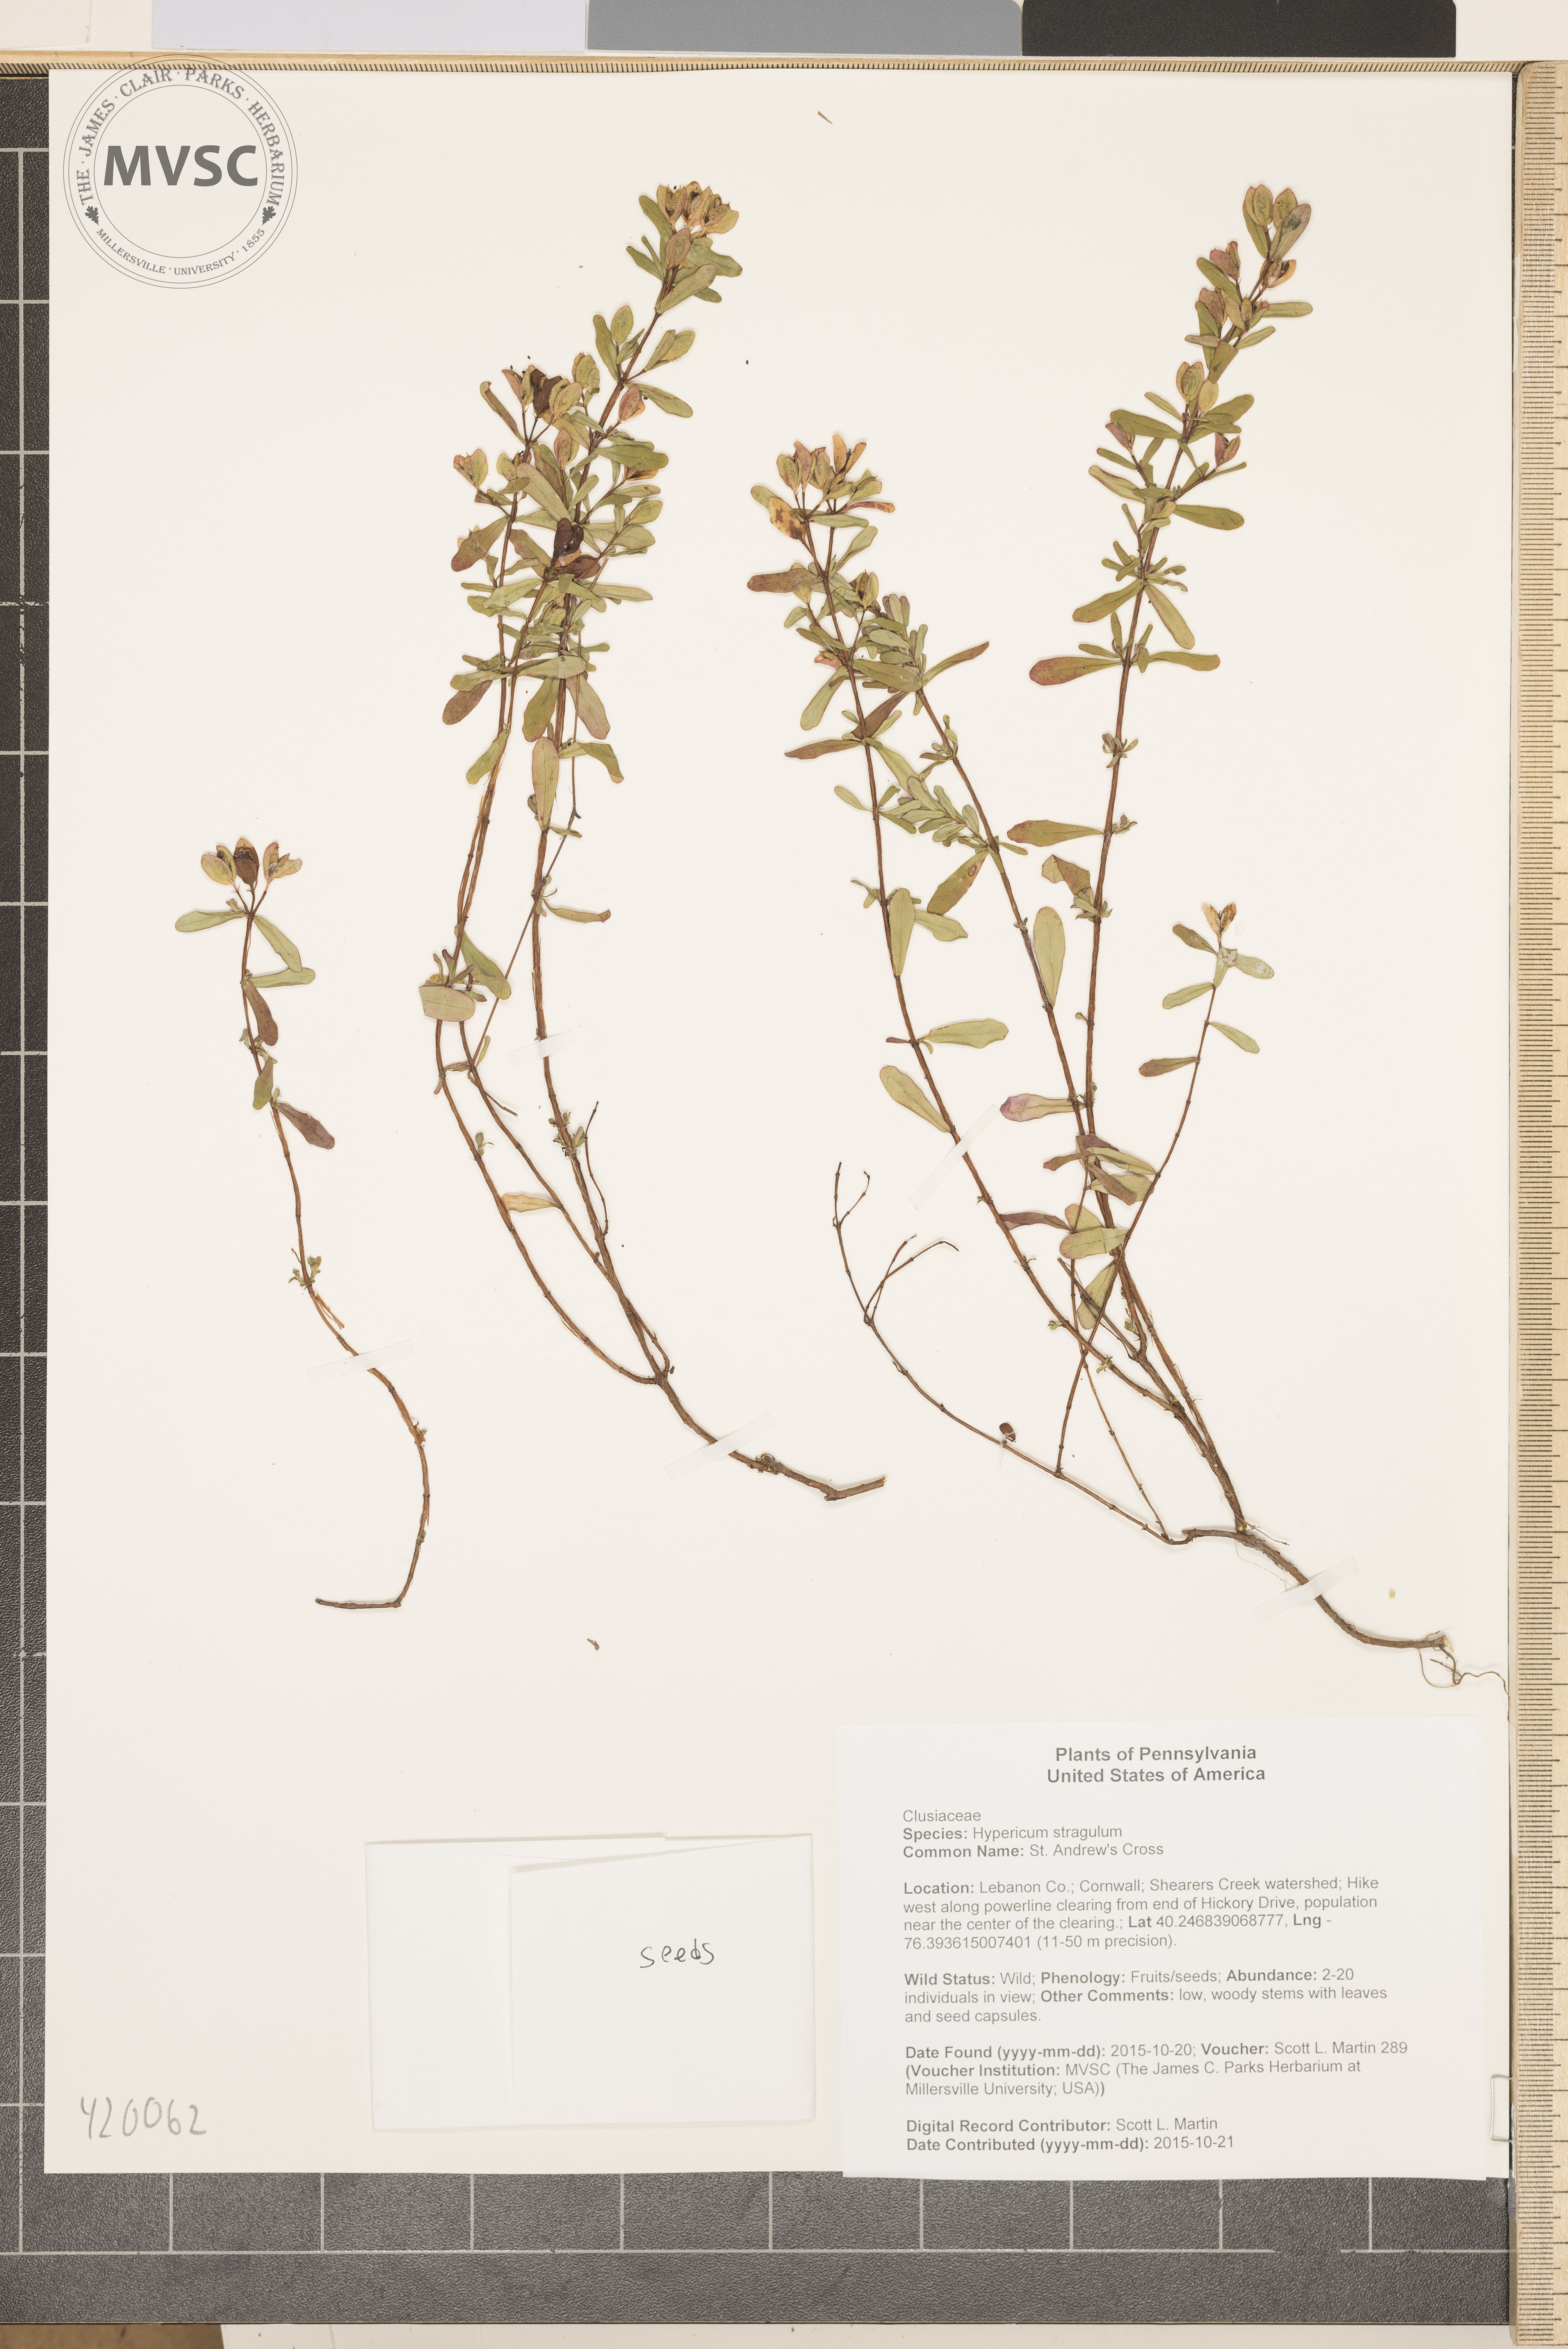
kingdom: Plantae
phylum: Tracheophyta
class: Magnoliopsida
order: Malpighiales
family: Hypericaceae
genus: Hypericum
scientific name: Hypericum hypericoides
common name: St. Andrew's Cross
